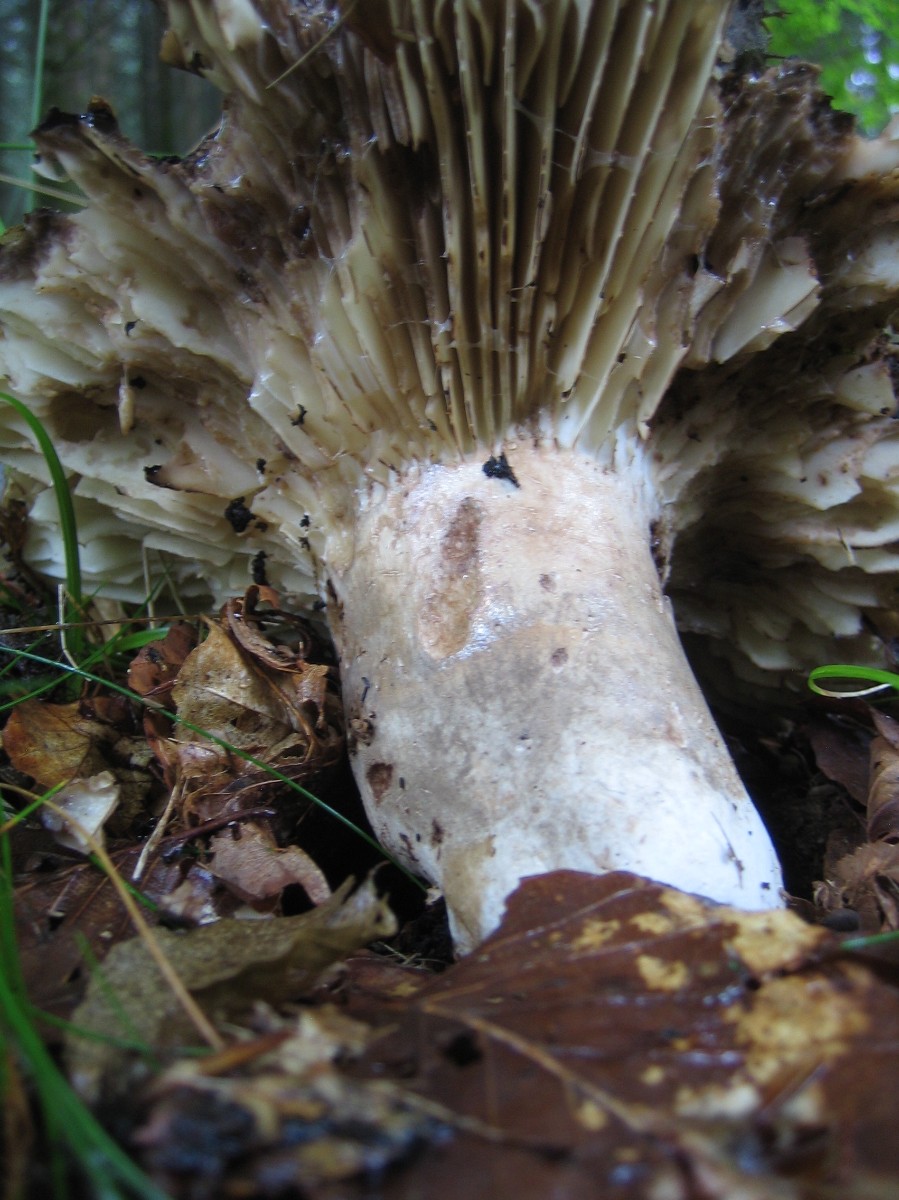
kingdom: Fungi
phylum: Basidiomycota
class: Agaricomycetes
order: Russulales
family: Russulaceae
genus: Russula
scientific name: Russula adusta
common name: sværtende skørhat
